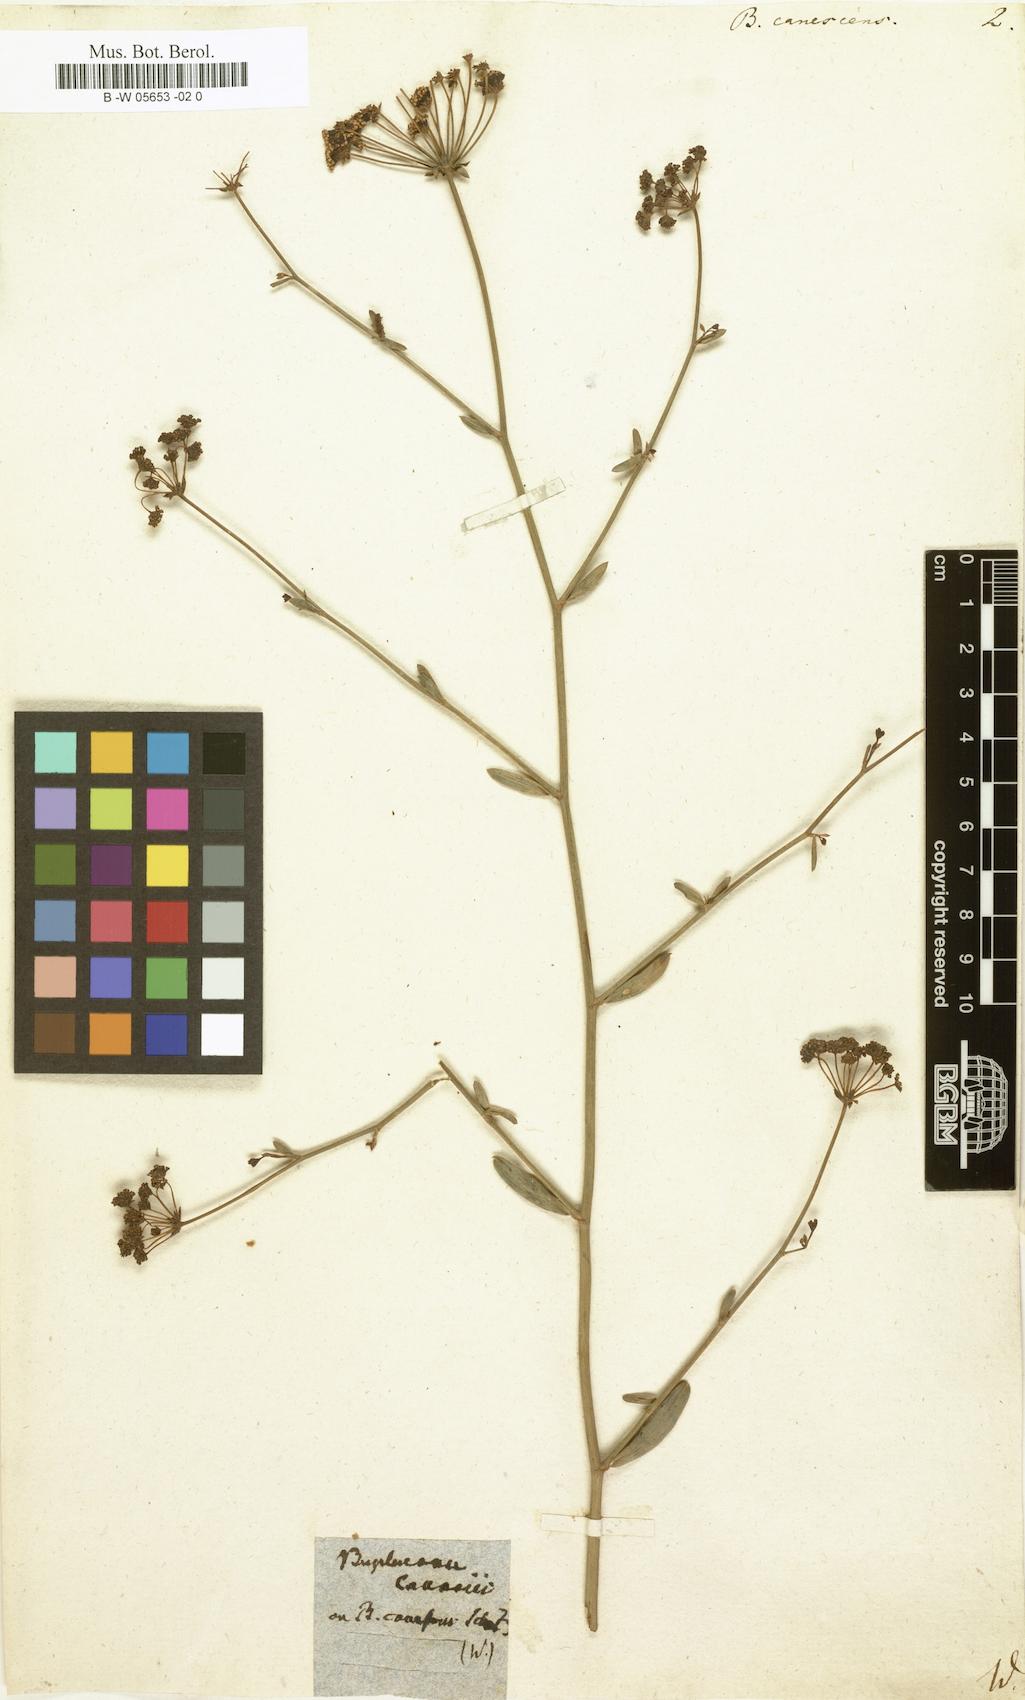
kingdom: Plantae
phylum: Tracheophyta
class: Magnoliopsida
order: Apiales
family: Apiaceae
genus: Bupleurum
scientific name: Bupleurum canescens
